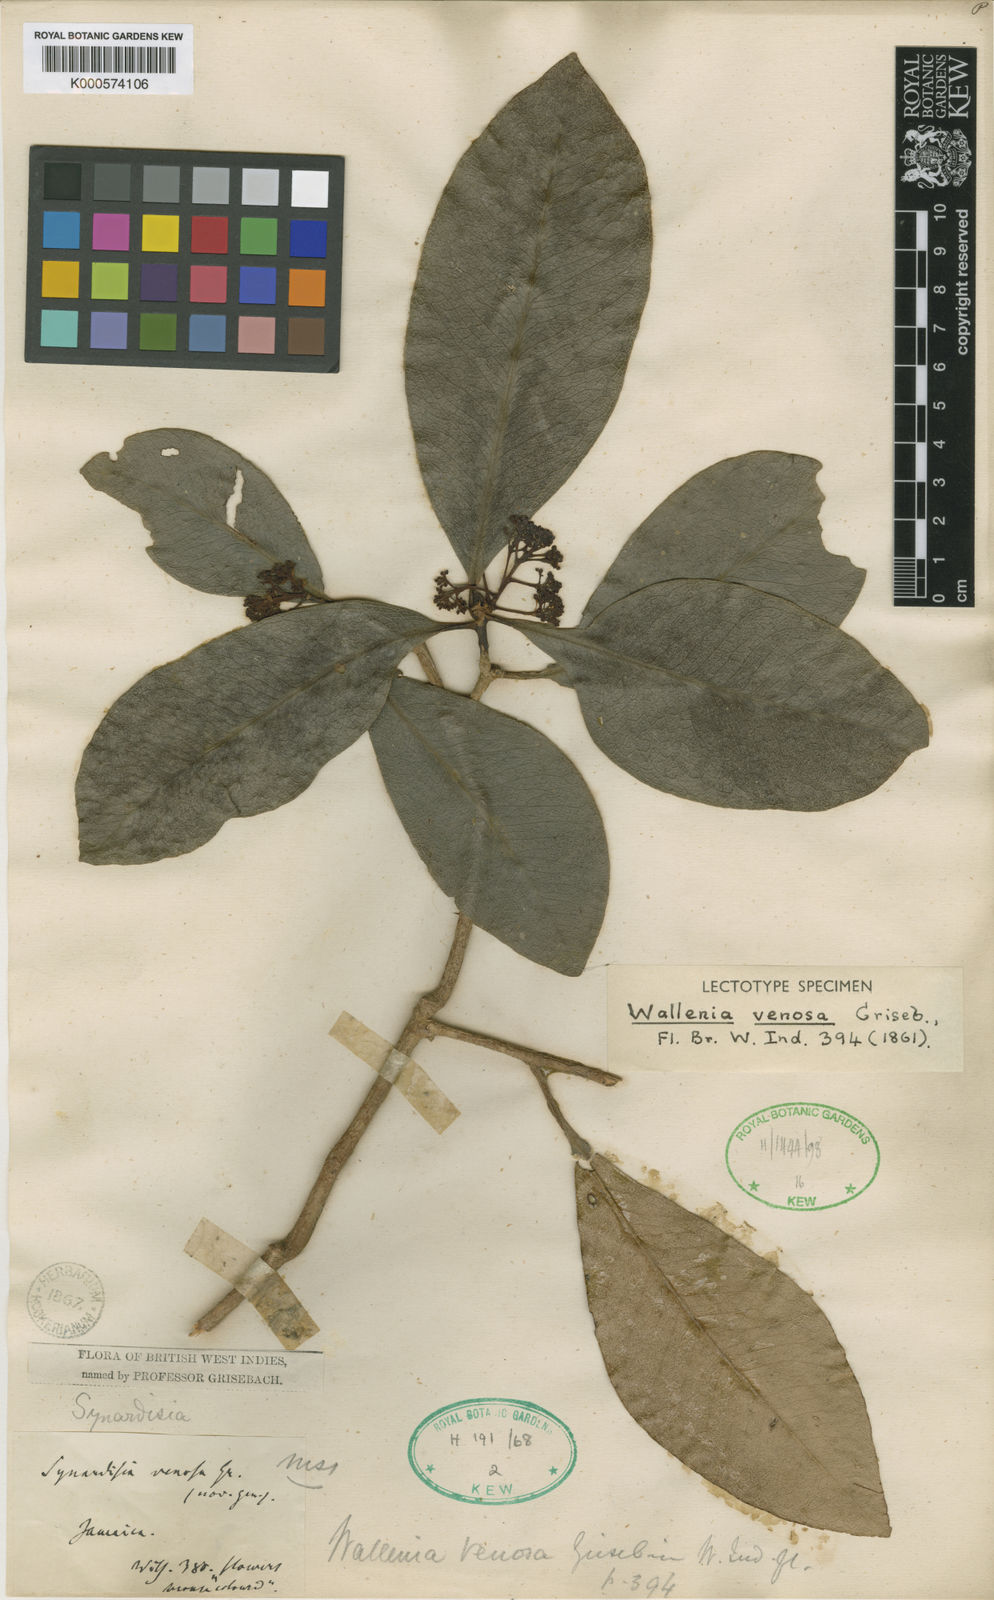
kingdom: Plantae
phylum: Tracheophyta
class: Magnoliopsida
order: Ericales
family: Primulaceae
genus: Wallenia
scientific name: Wallenia venosa
